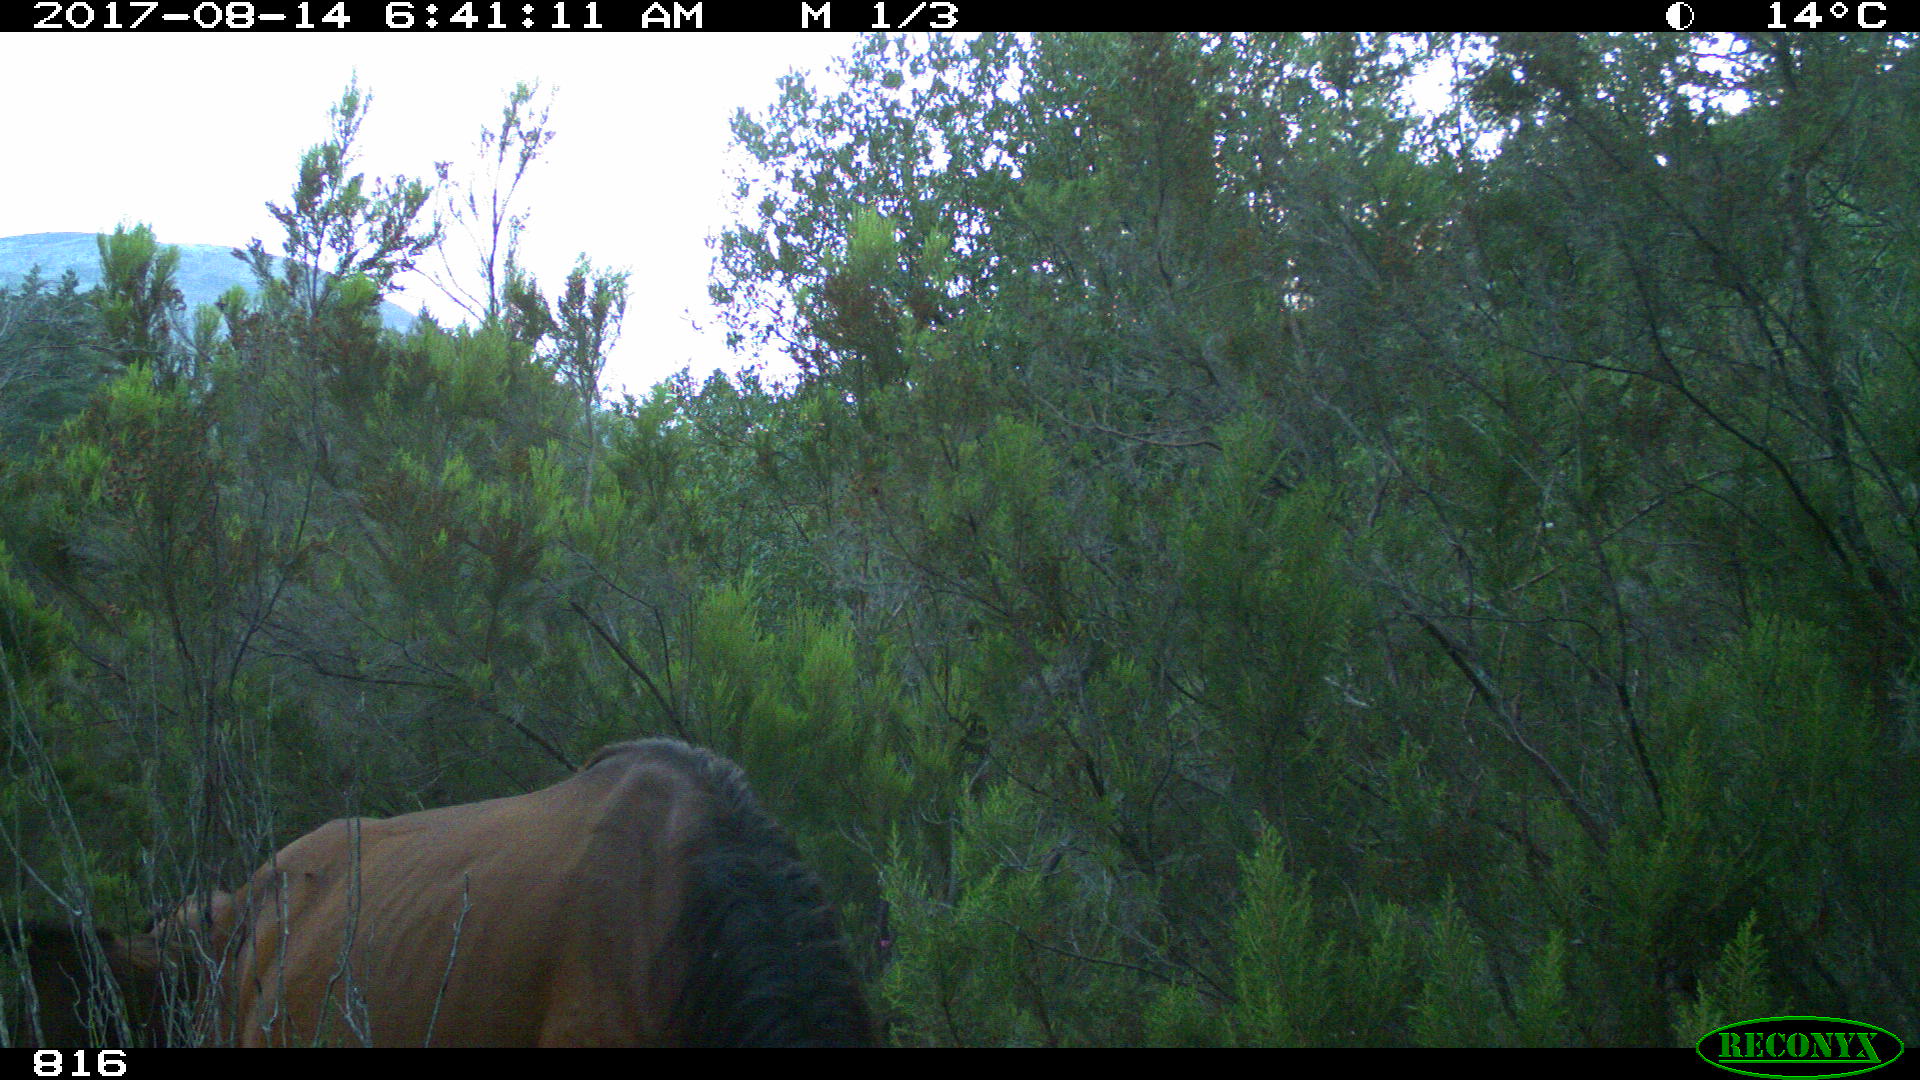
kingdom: Animalia
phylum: Chordata
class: Mammalia
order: Perissodactyla
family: Equidae
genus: Equus
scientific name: Equus caballus
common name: Horse
